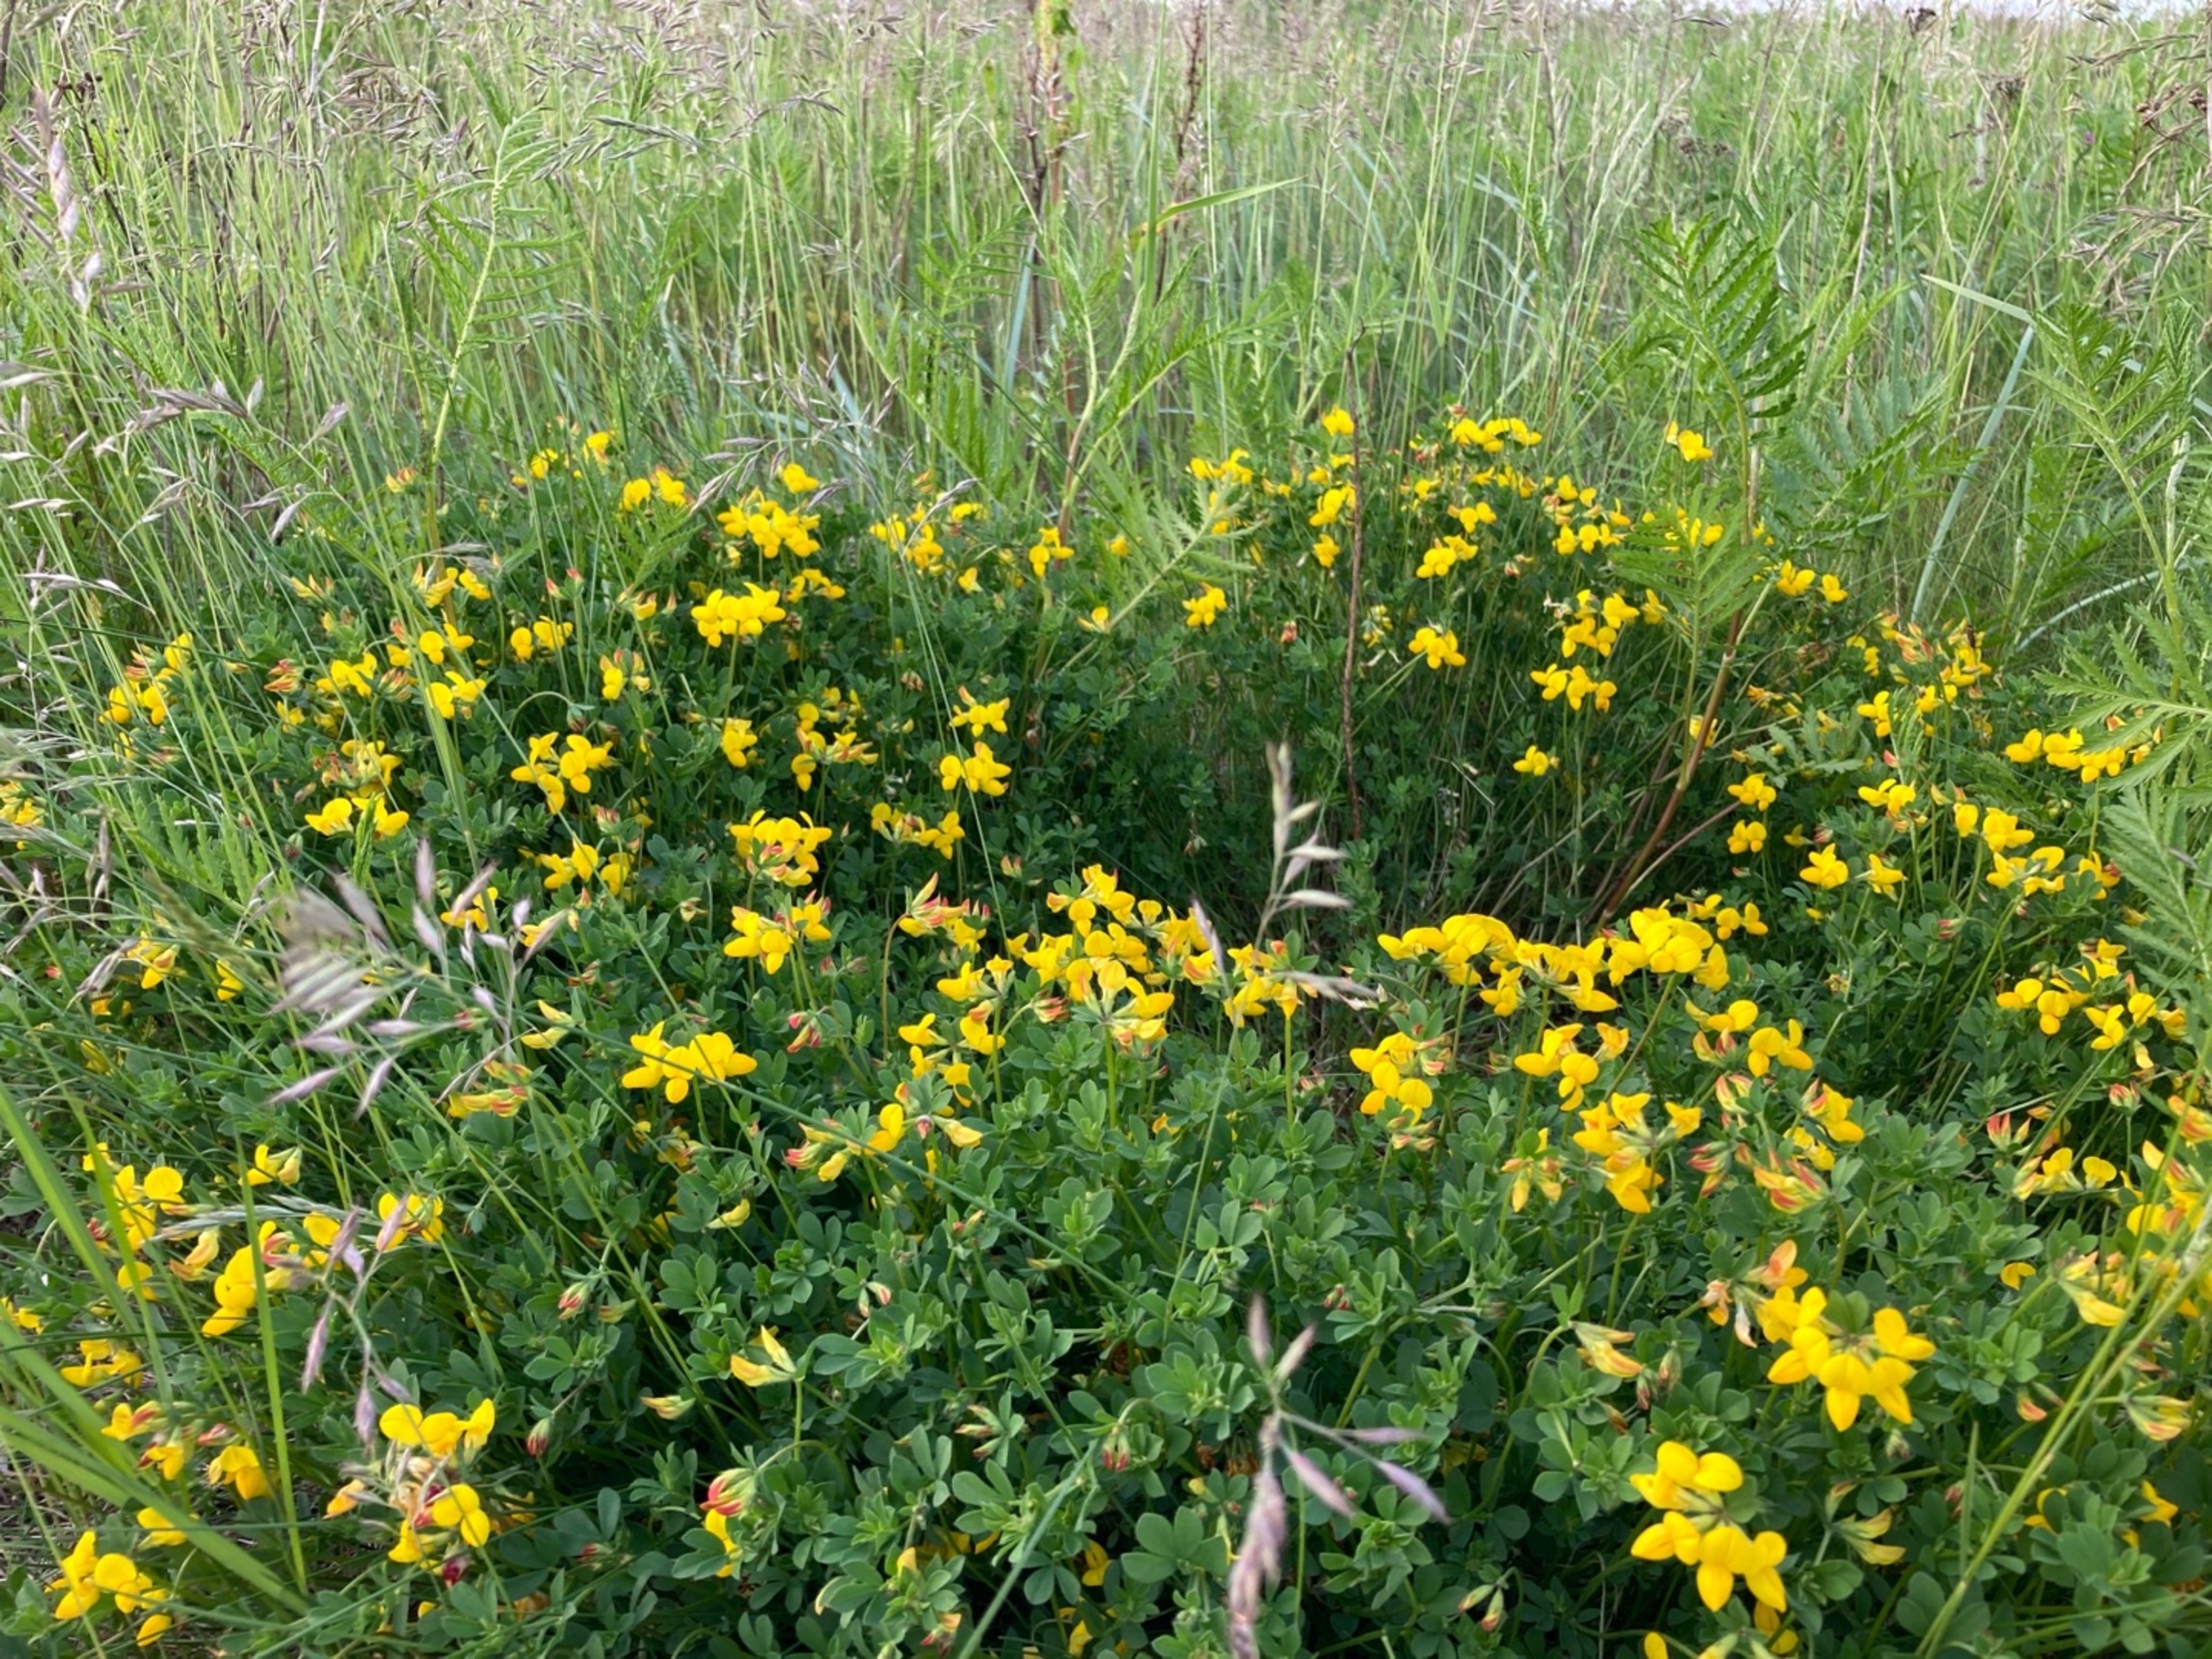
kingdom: Plantae
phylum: Tracheophyta
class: Magnoliopsida
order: Fabales
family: Fabaceae
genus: Lotus
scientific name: Lotus corniculatus
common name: Almindelig kællingetand
